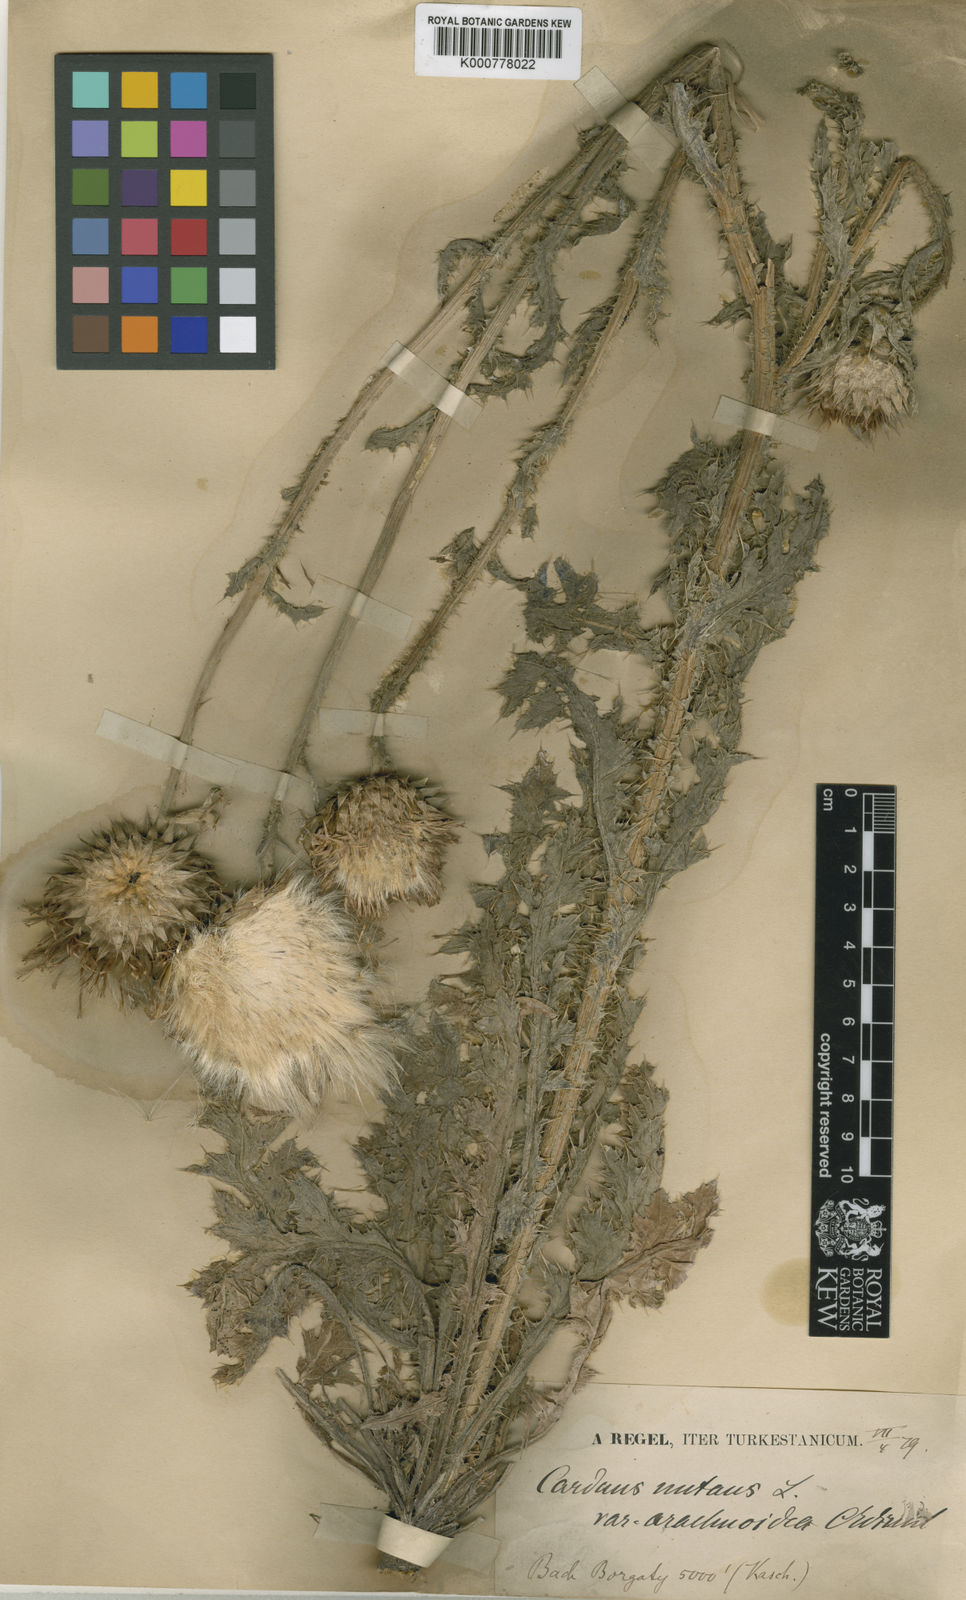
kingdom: Plantae
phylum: Tracheophyta
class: Magnoliopsida
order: Asterales
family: Asteraceae
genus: Carduus
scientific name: Carduus nutans
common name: Musk thistle
